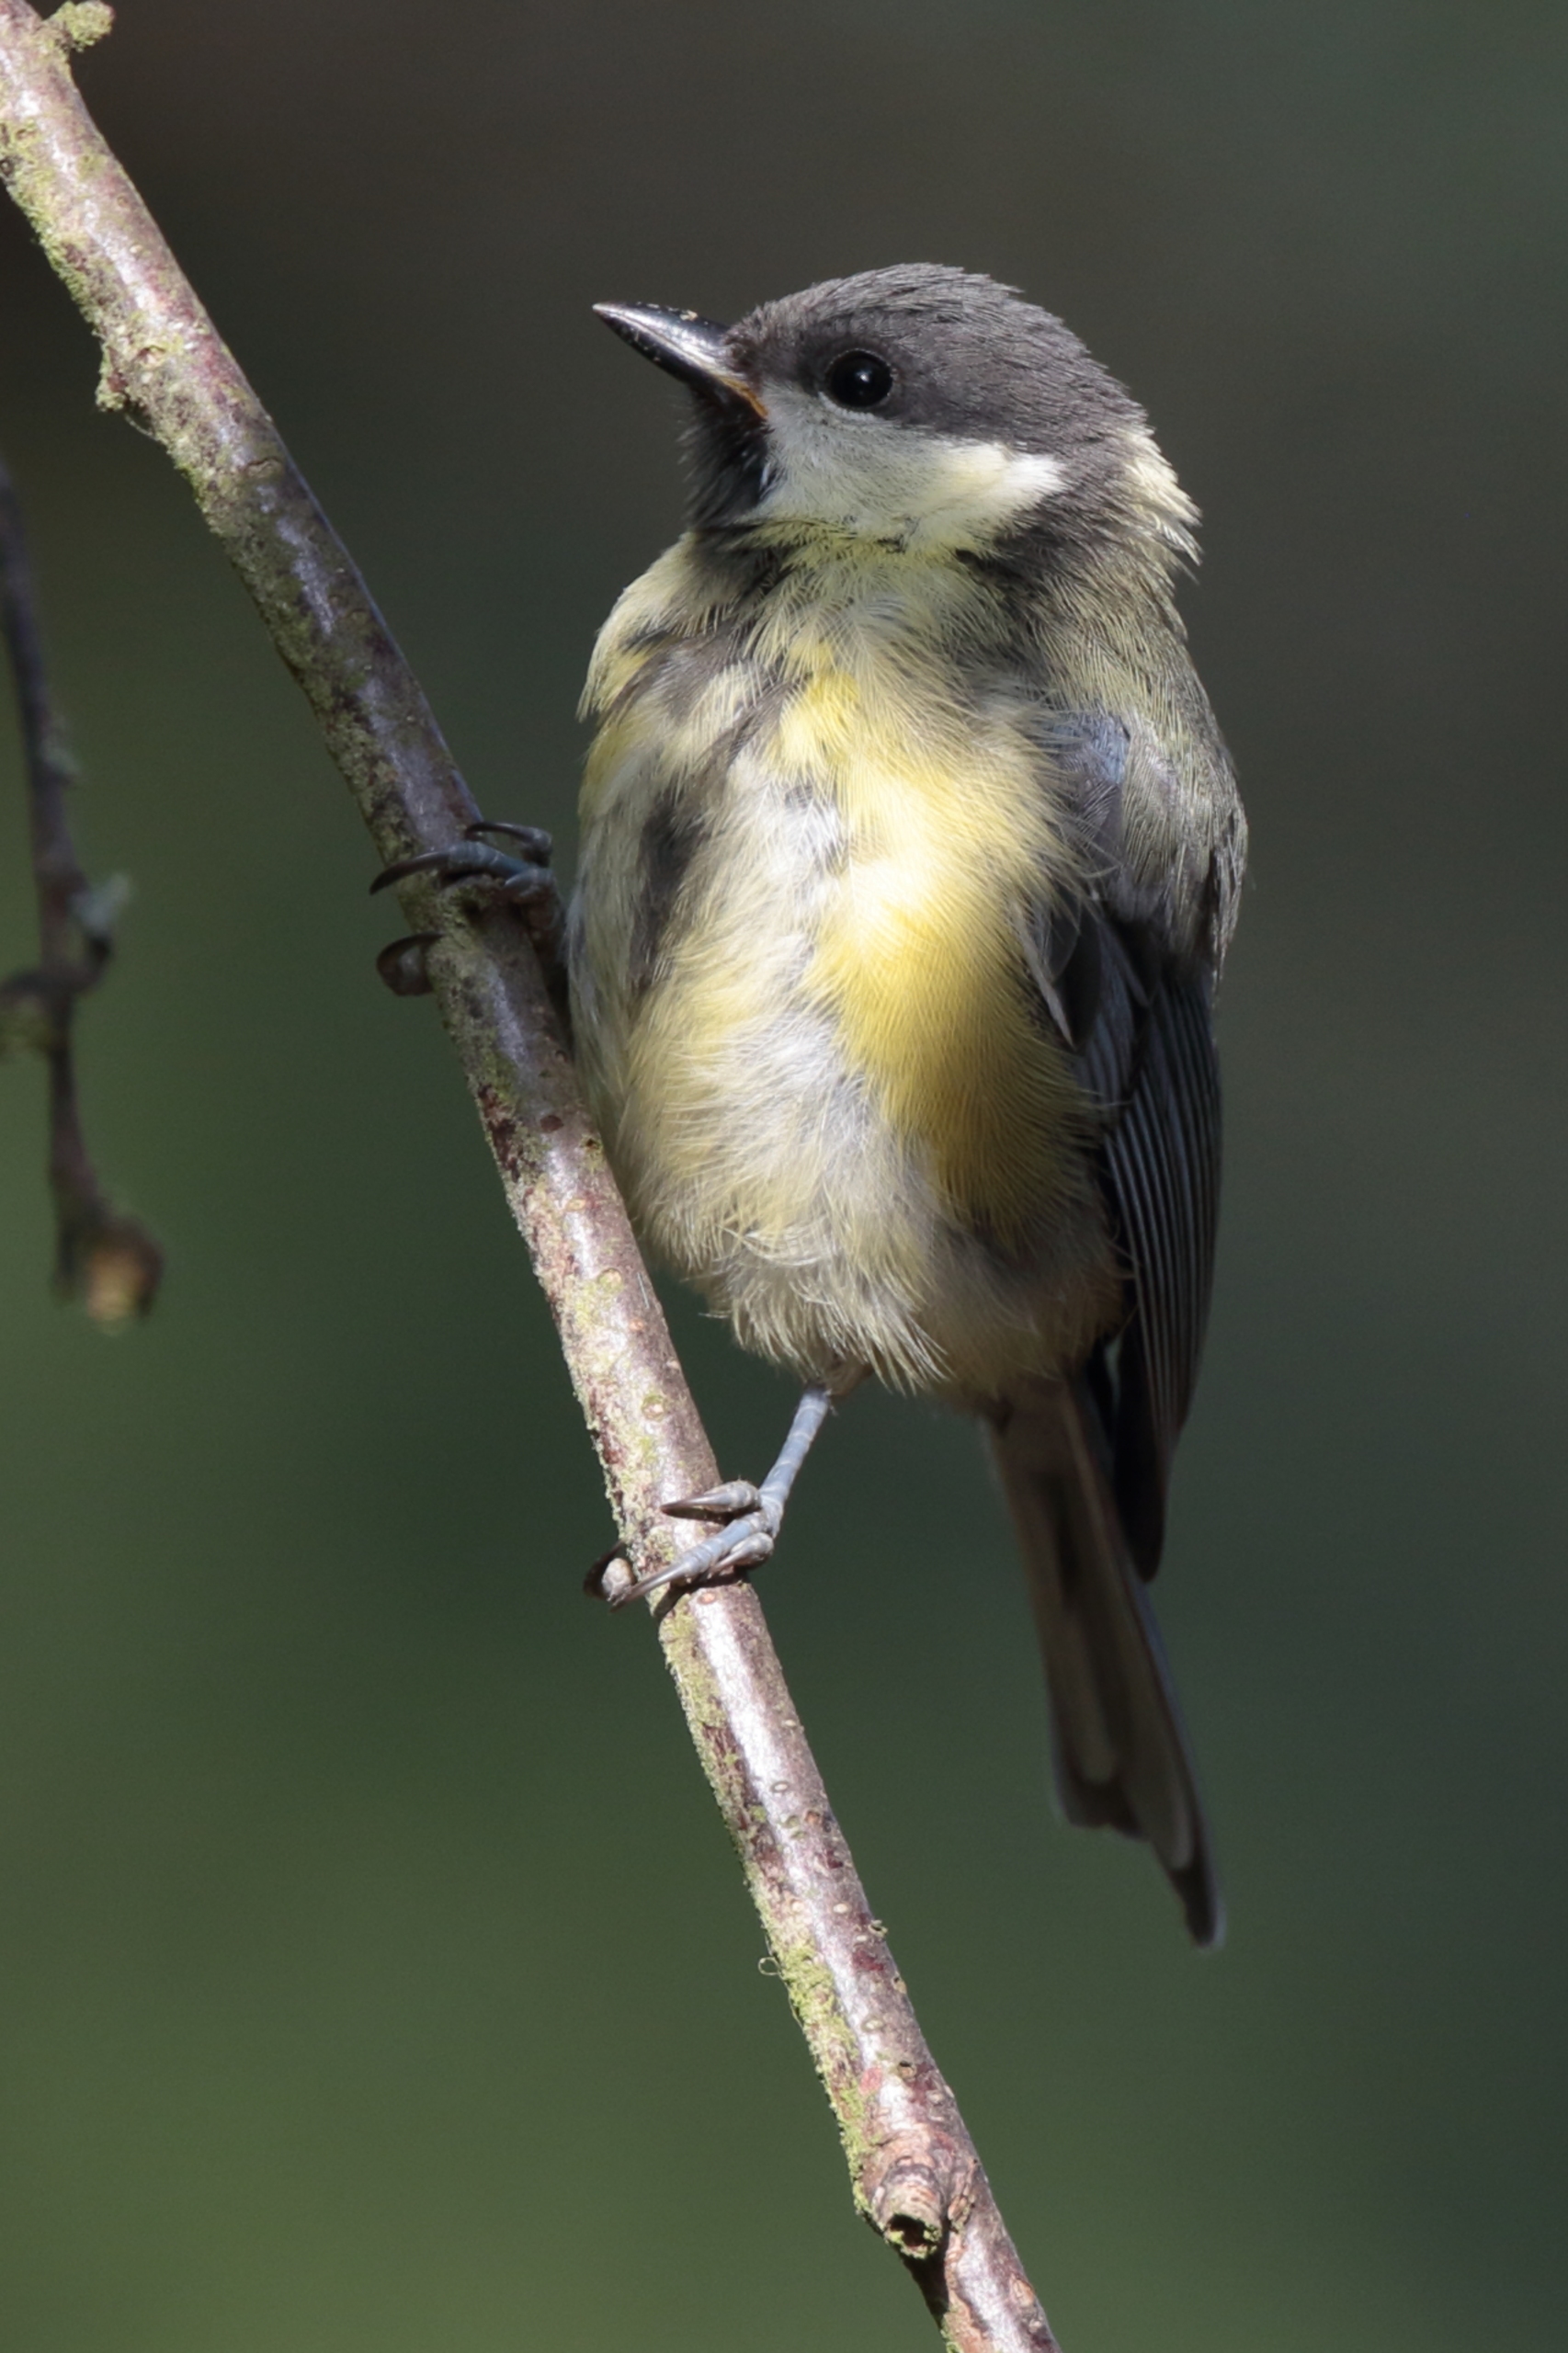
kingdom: Animalia
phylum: Chordata
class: Aves
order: Passeriformes
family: Paridae
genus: Parus
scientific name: Parus major
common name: Musvit
